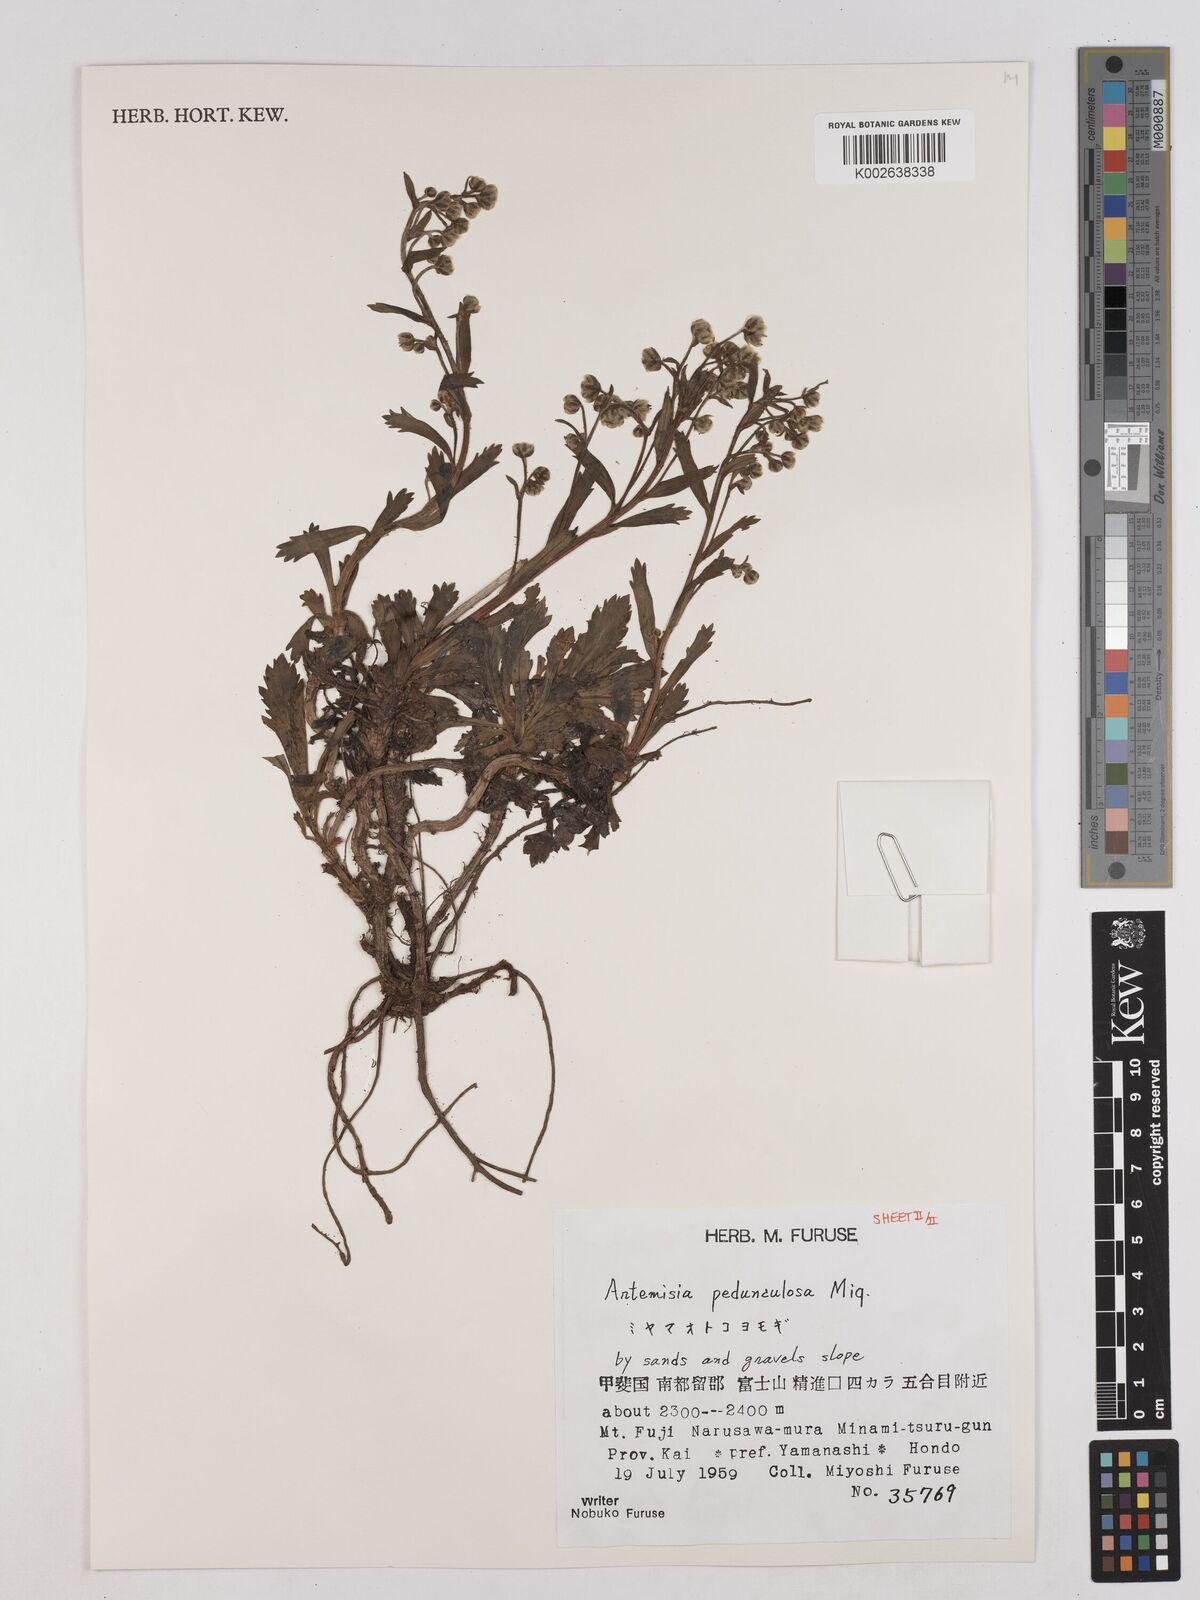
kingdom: Plantae
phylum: Tracheophyta
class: Magnoliopsida
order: Asterales
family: Asteraceae
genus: Artemisia
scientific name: Artemisia pedunculosa
